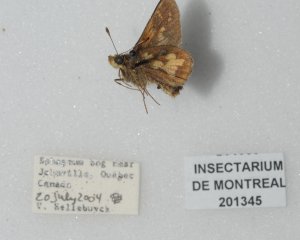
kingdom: Animalia
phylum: Arthropoda
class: Insecta
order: Lepidoptera
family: Hesperiidae
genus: Polites
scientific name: Polites coras
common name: Peck's Skipper
